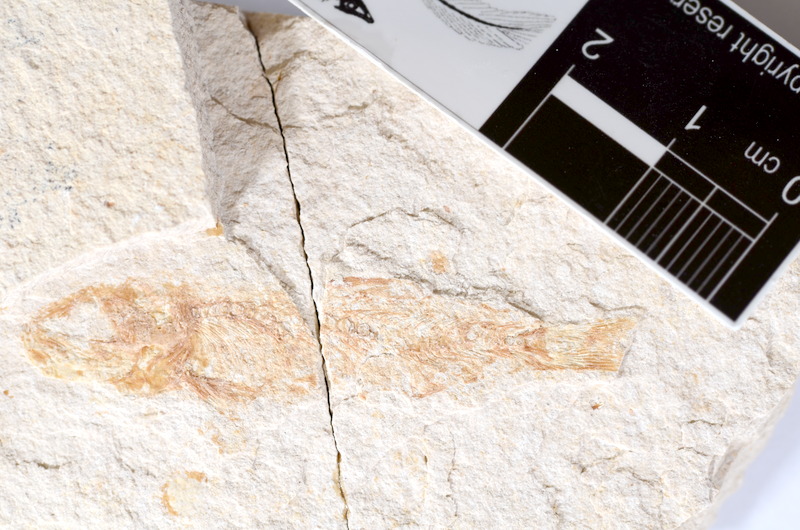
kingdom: Animalia
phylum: Chordata
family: Ascalaboidae
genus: Tharsis
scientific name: Tharsis dubius
